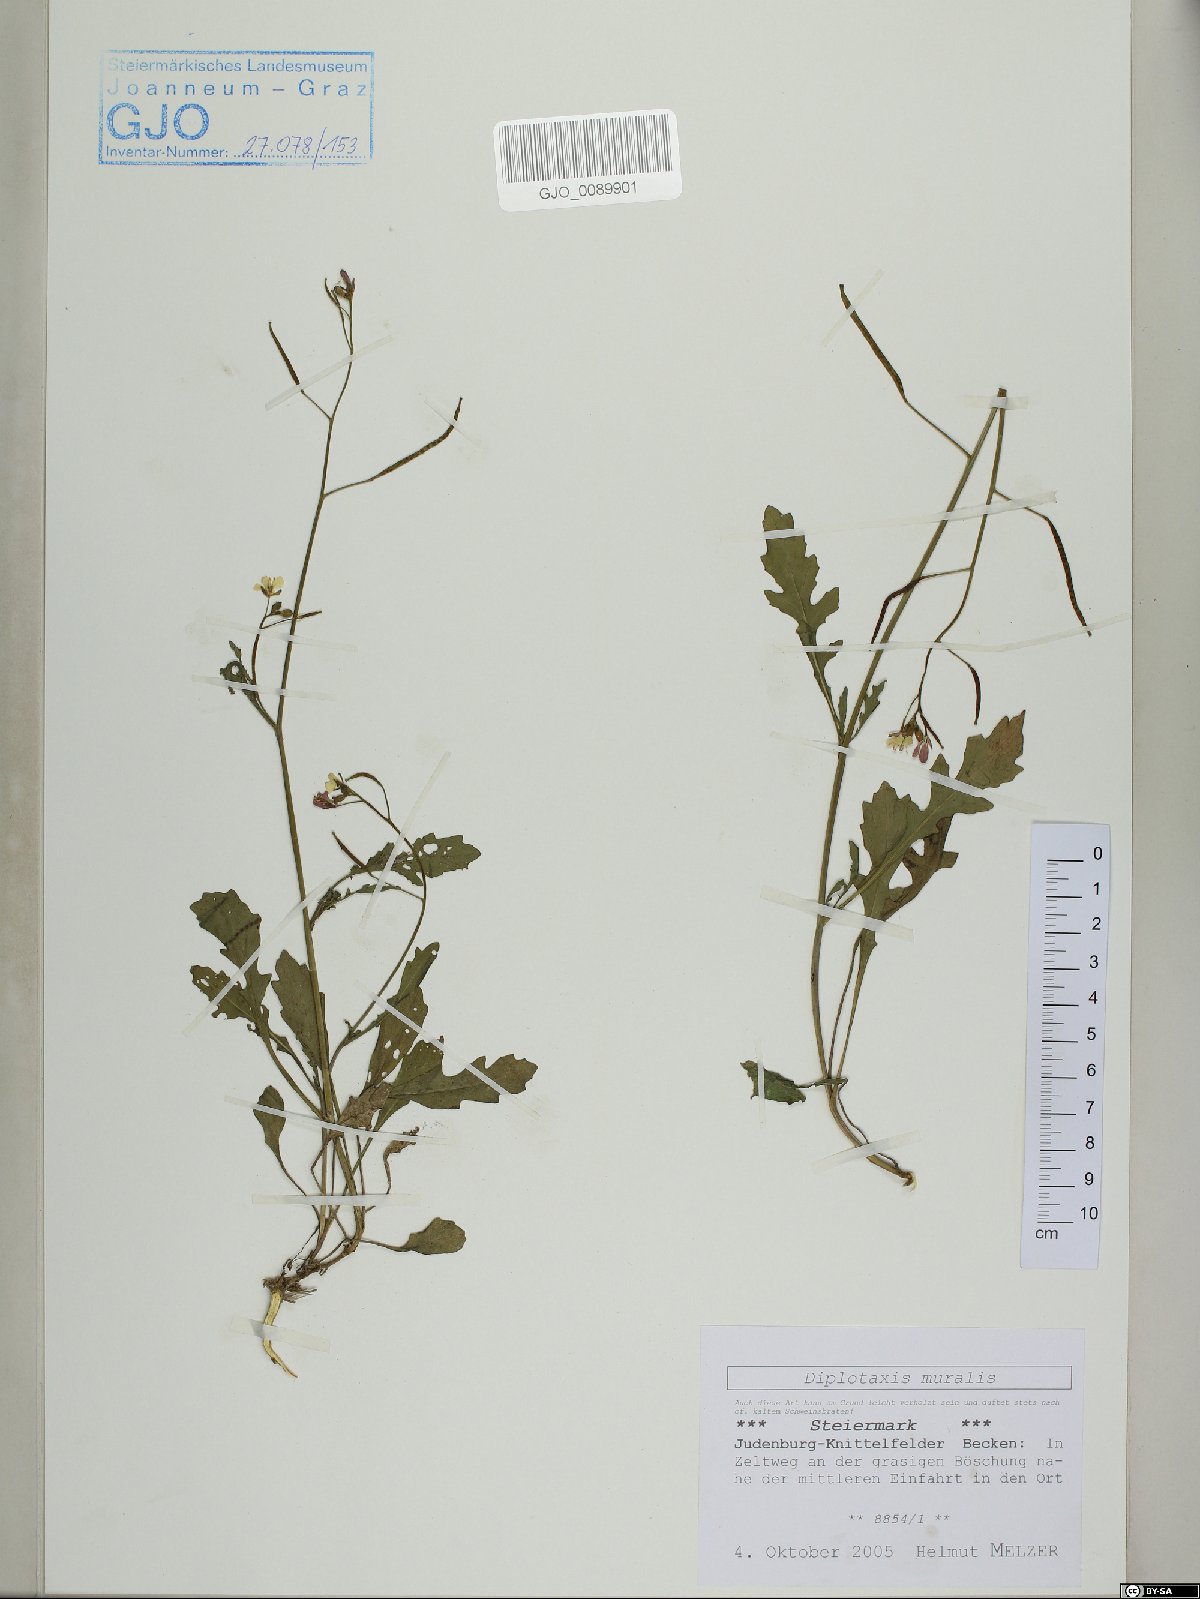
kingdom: Plantae
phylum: Tracheophyta
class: Magnoliopsida
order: Brassicales
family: Brassicaceae
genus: Diplotaxis
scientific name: Diplotaxis muralis
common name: Annual wall-rocket
